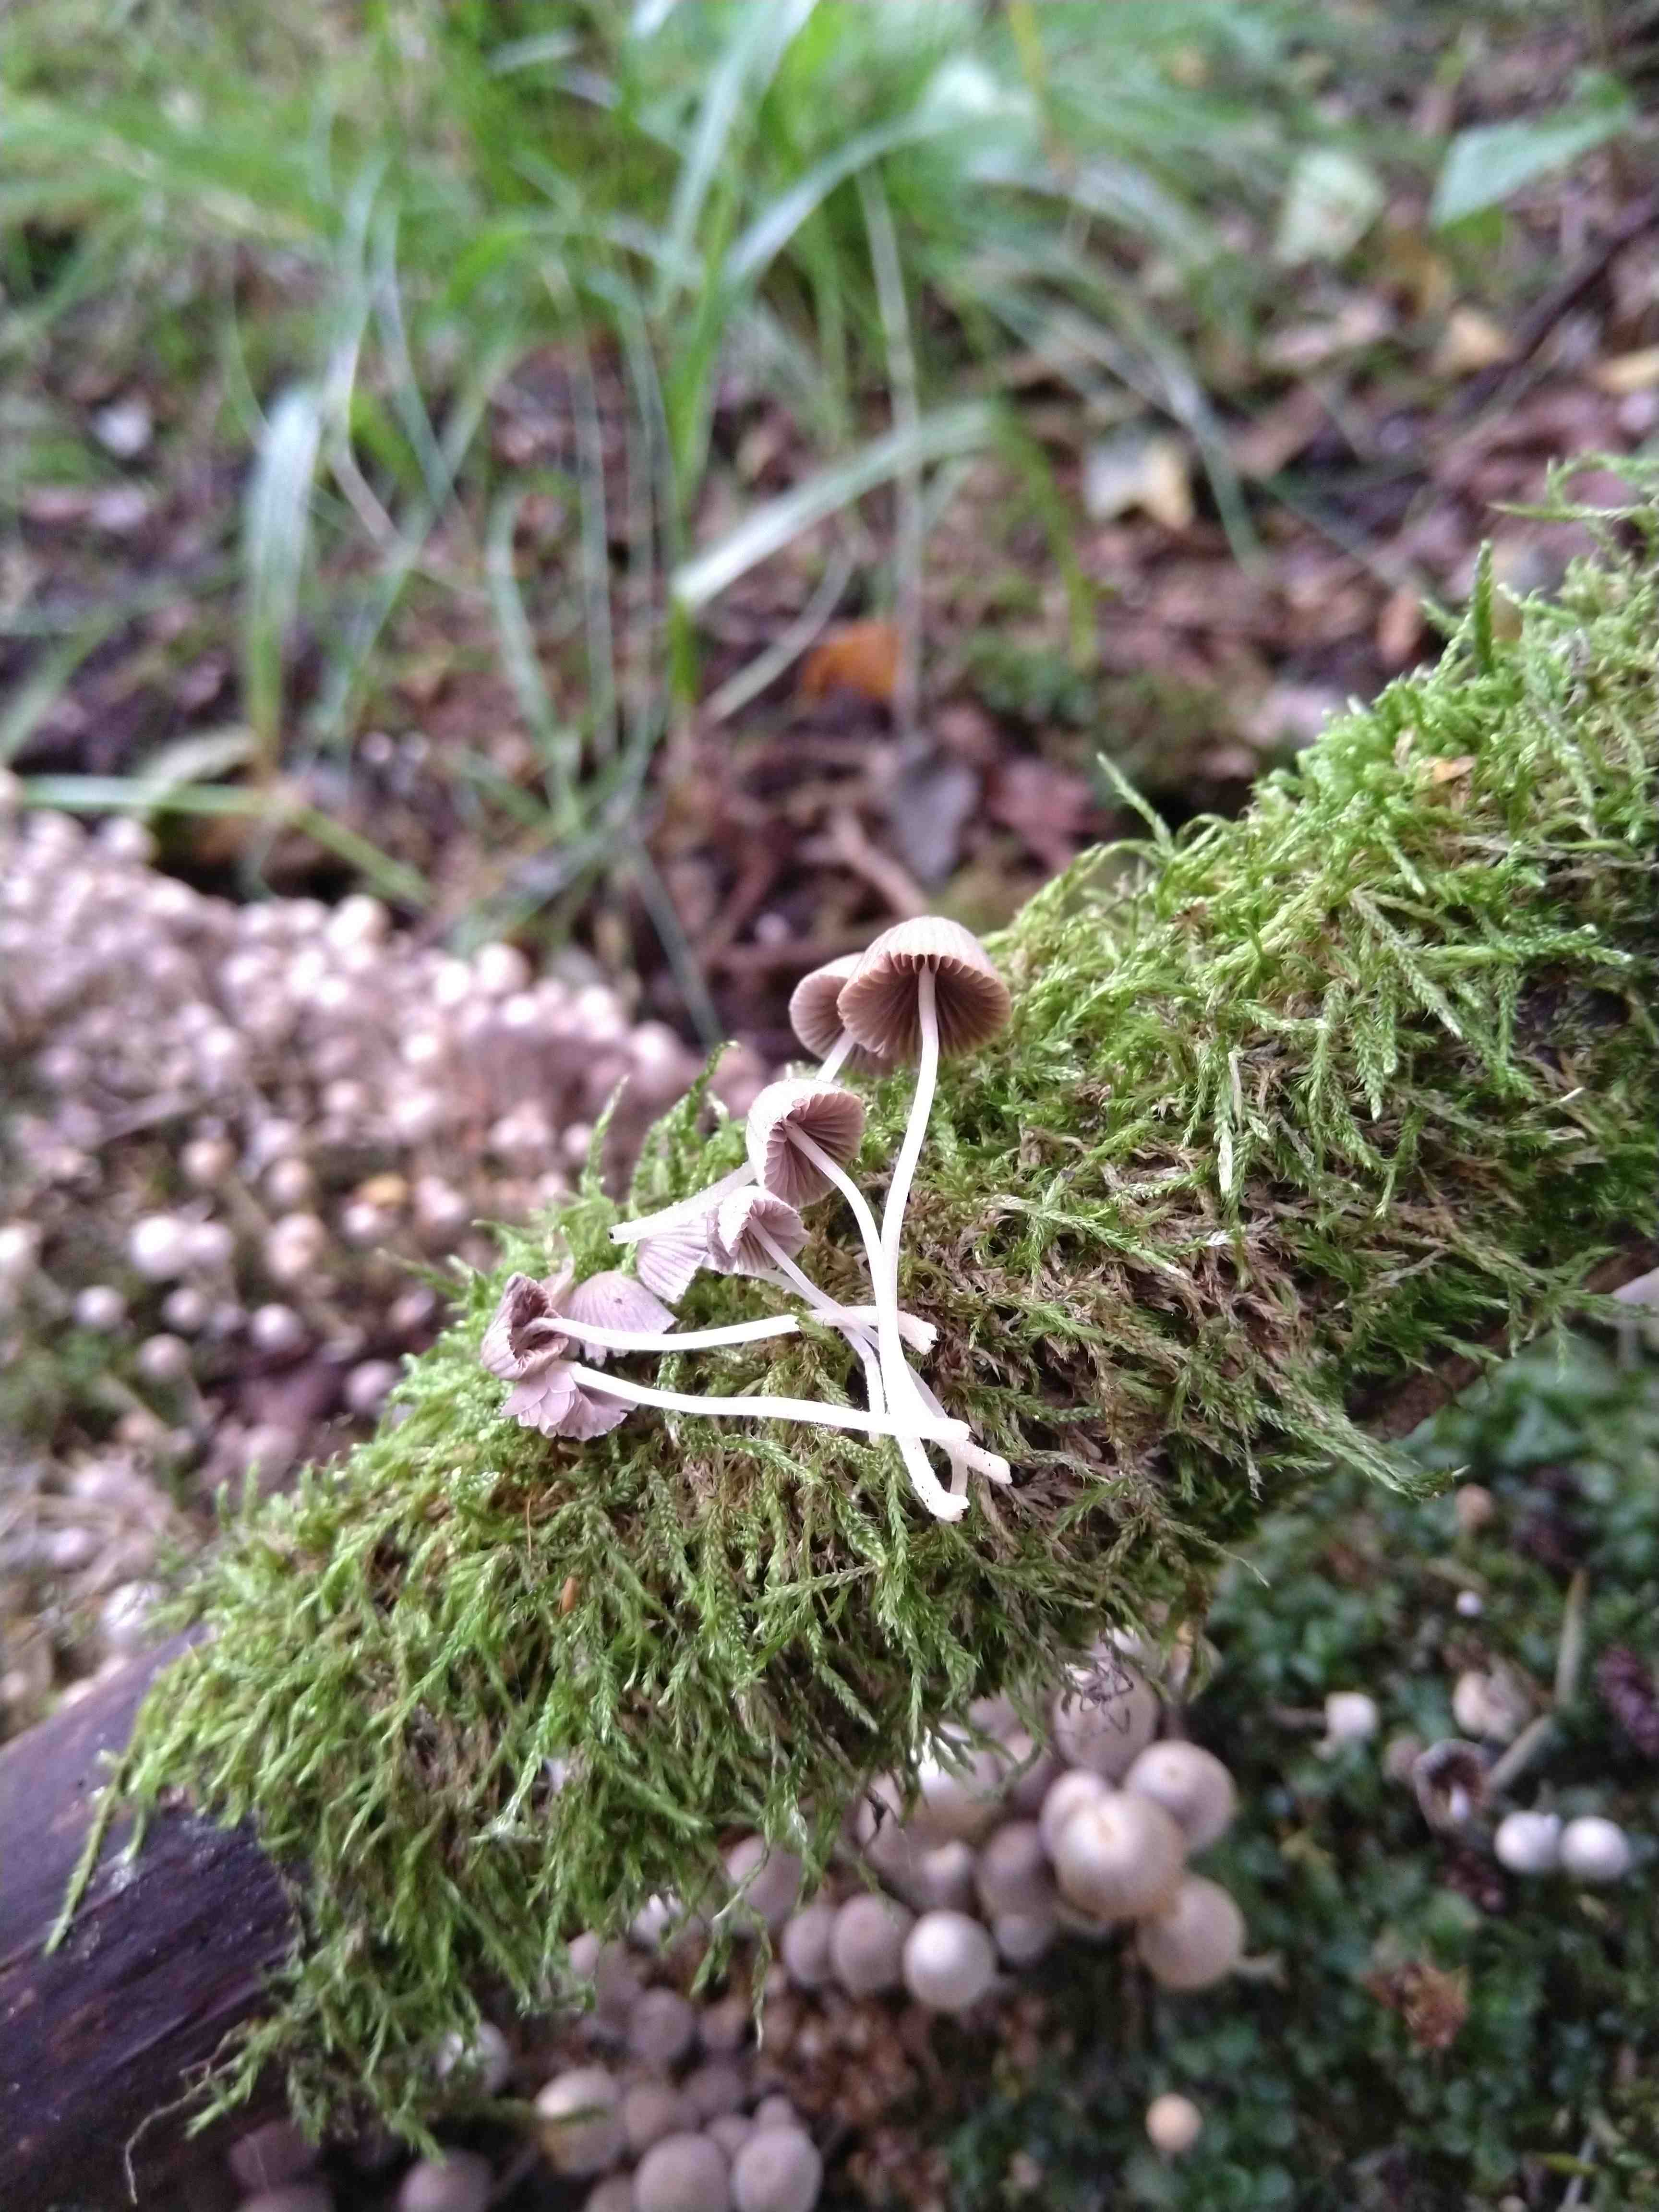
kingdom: Fungi
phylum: Basidiomycota
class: Agaricomycetes
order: Agaricales
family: Psathyrellaceae
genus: Coprinellus
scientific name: Coprinellus disseminatus
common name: bredsået blækhat
